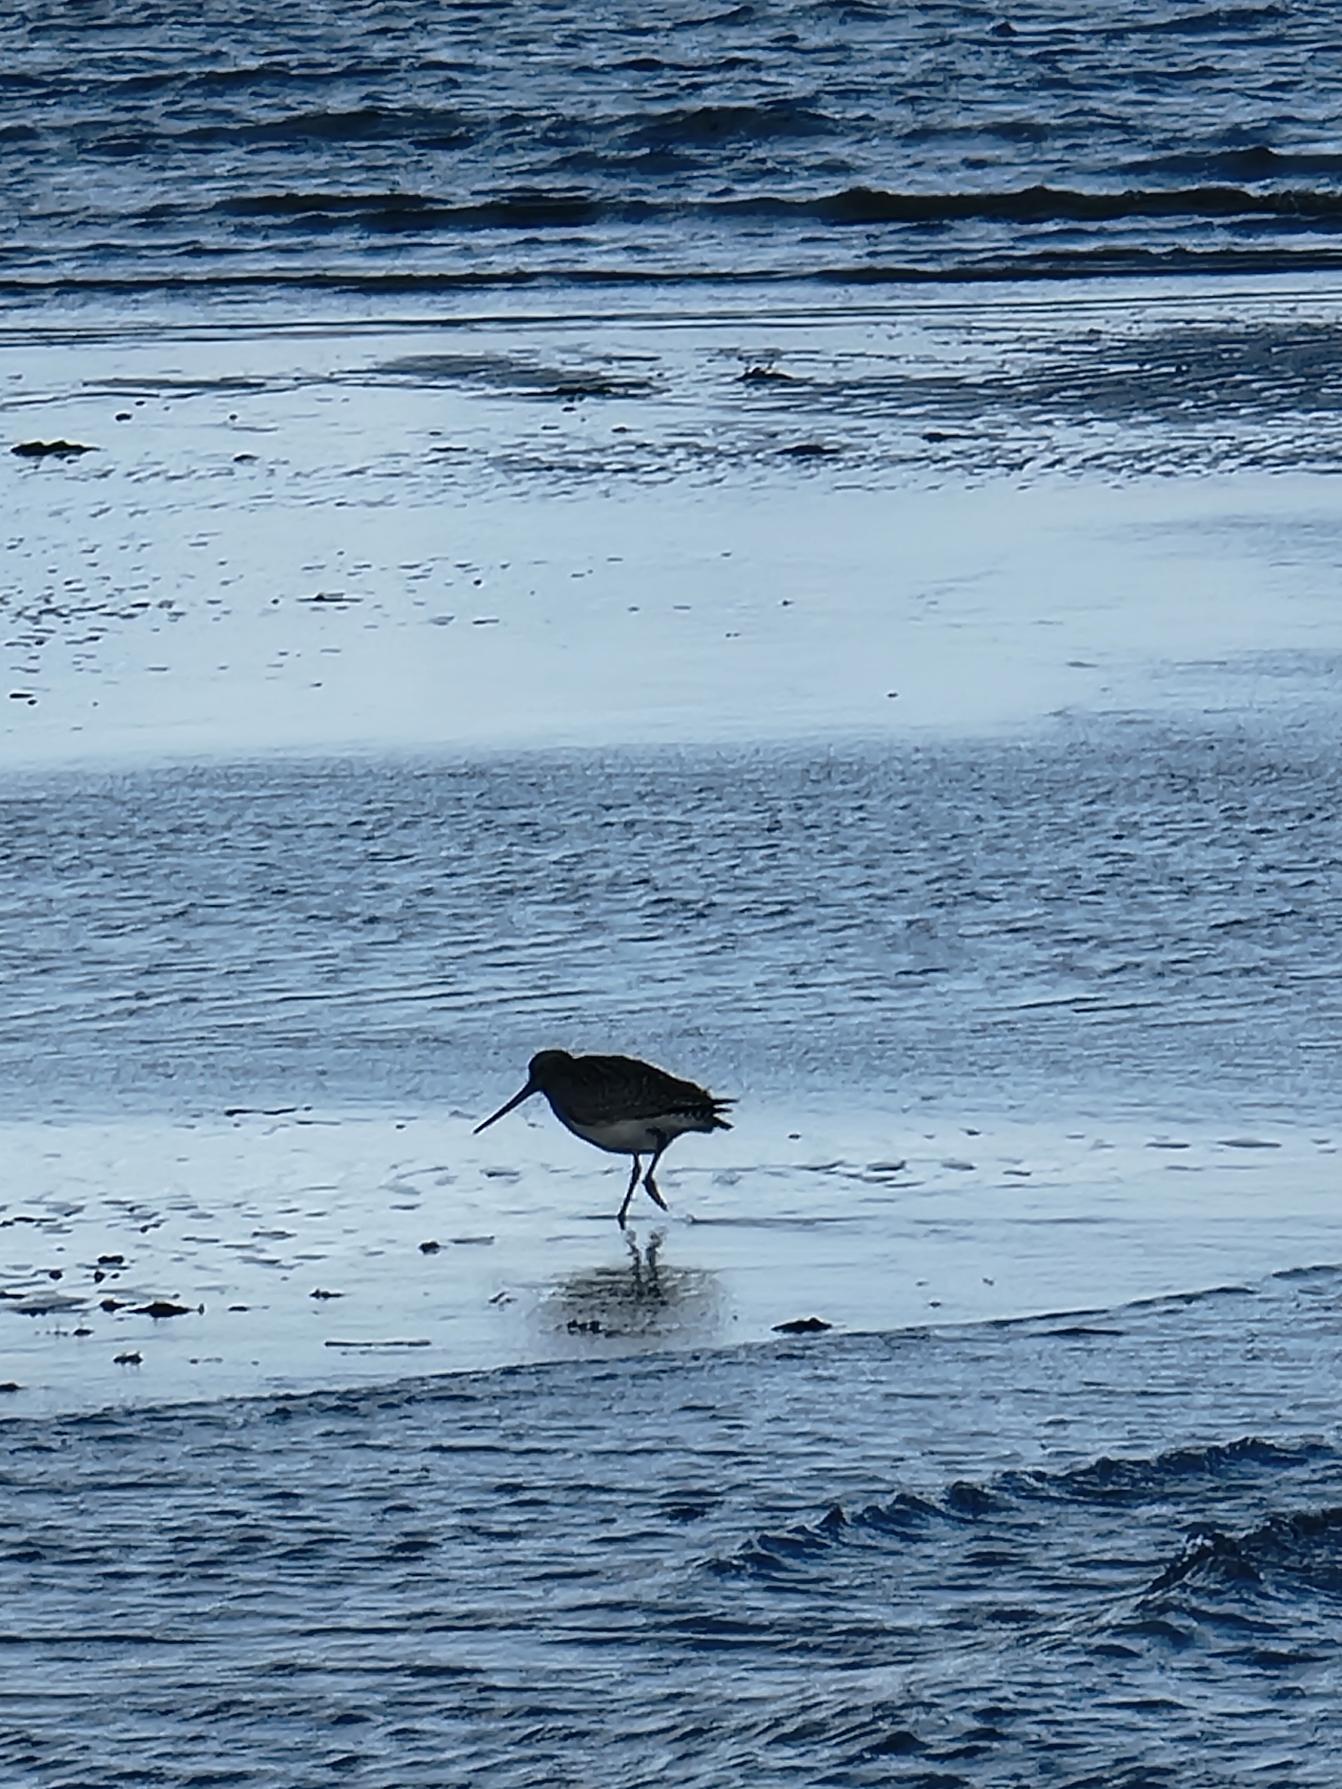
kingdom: Animalia
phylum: Chordata
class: Aves
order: Charadriiformes
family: Scolopacidae
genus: Limosa
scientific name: Limosa lapponica
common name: Lille kobbersneppe
